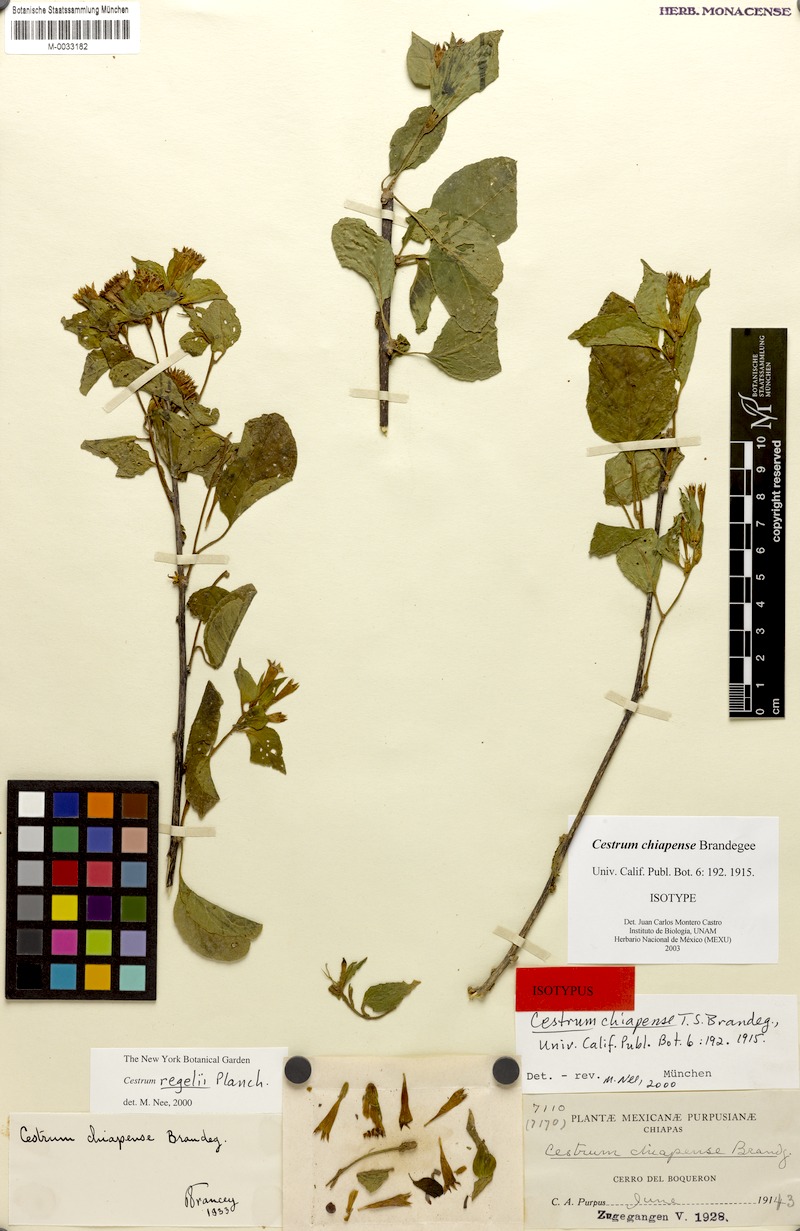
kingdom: Plantae
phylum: Tracheophyta
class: Magnoliopsida
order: Solanales
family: Solanaceae
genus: Cestrum
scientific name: Cestrum aurantiacum
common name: Orange cestrum
